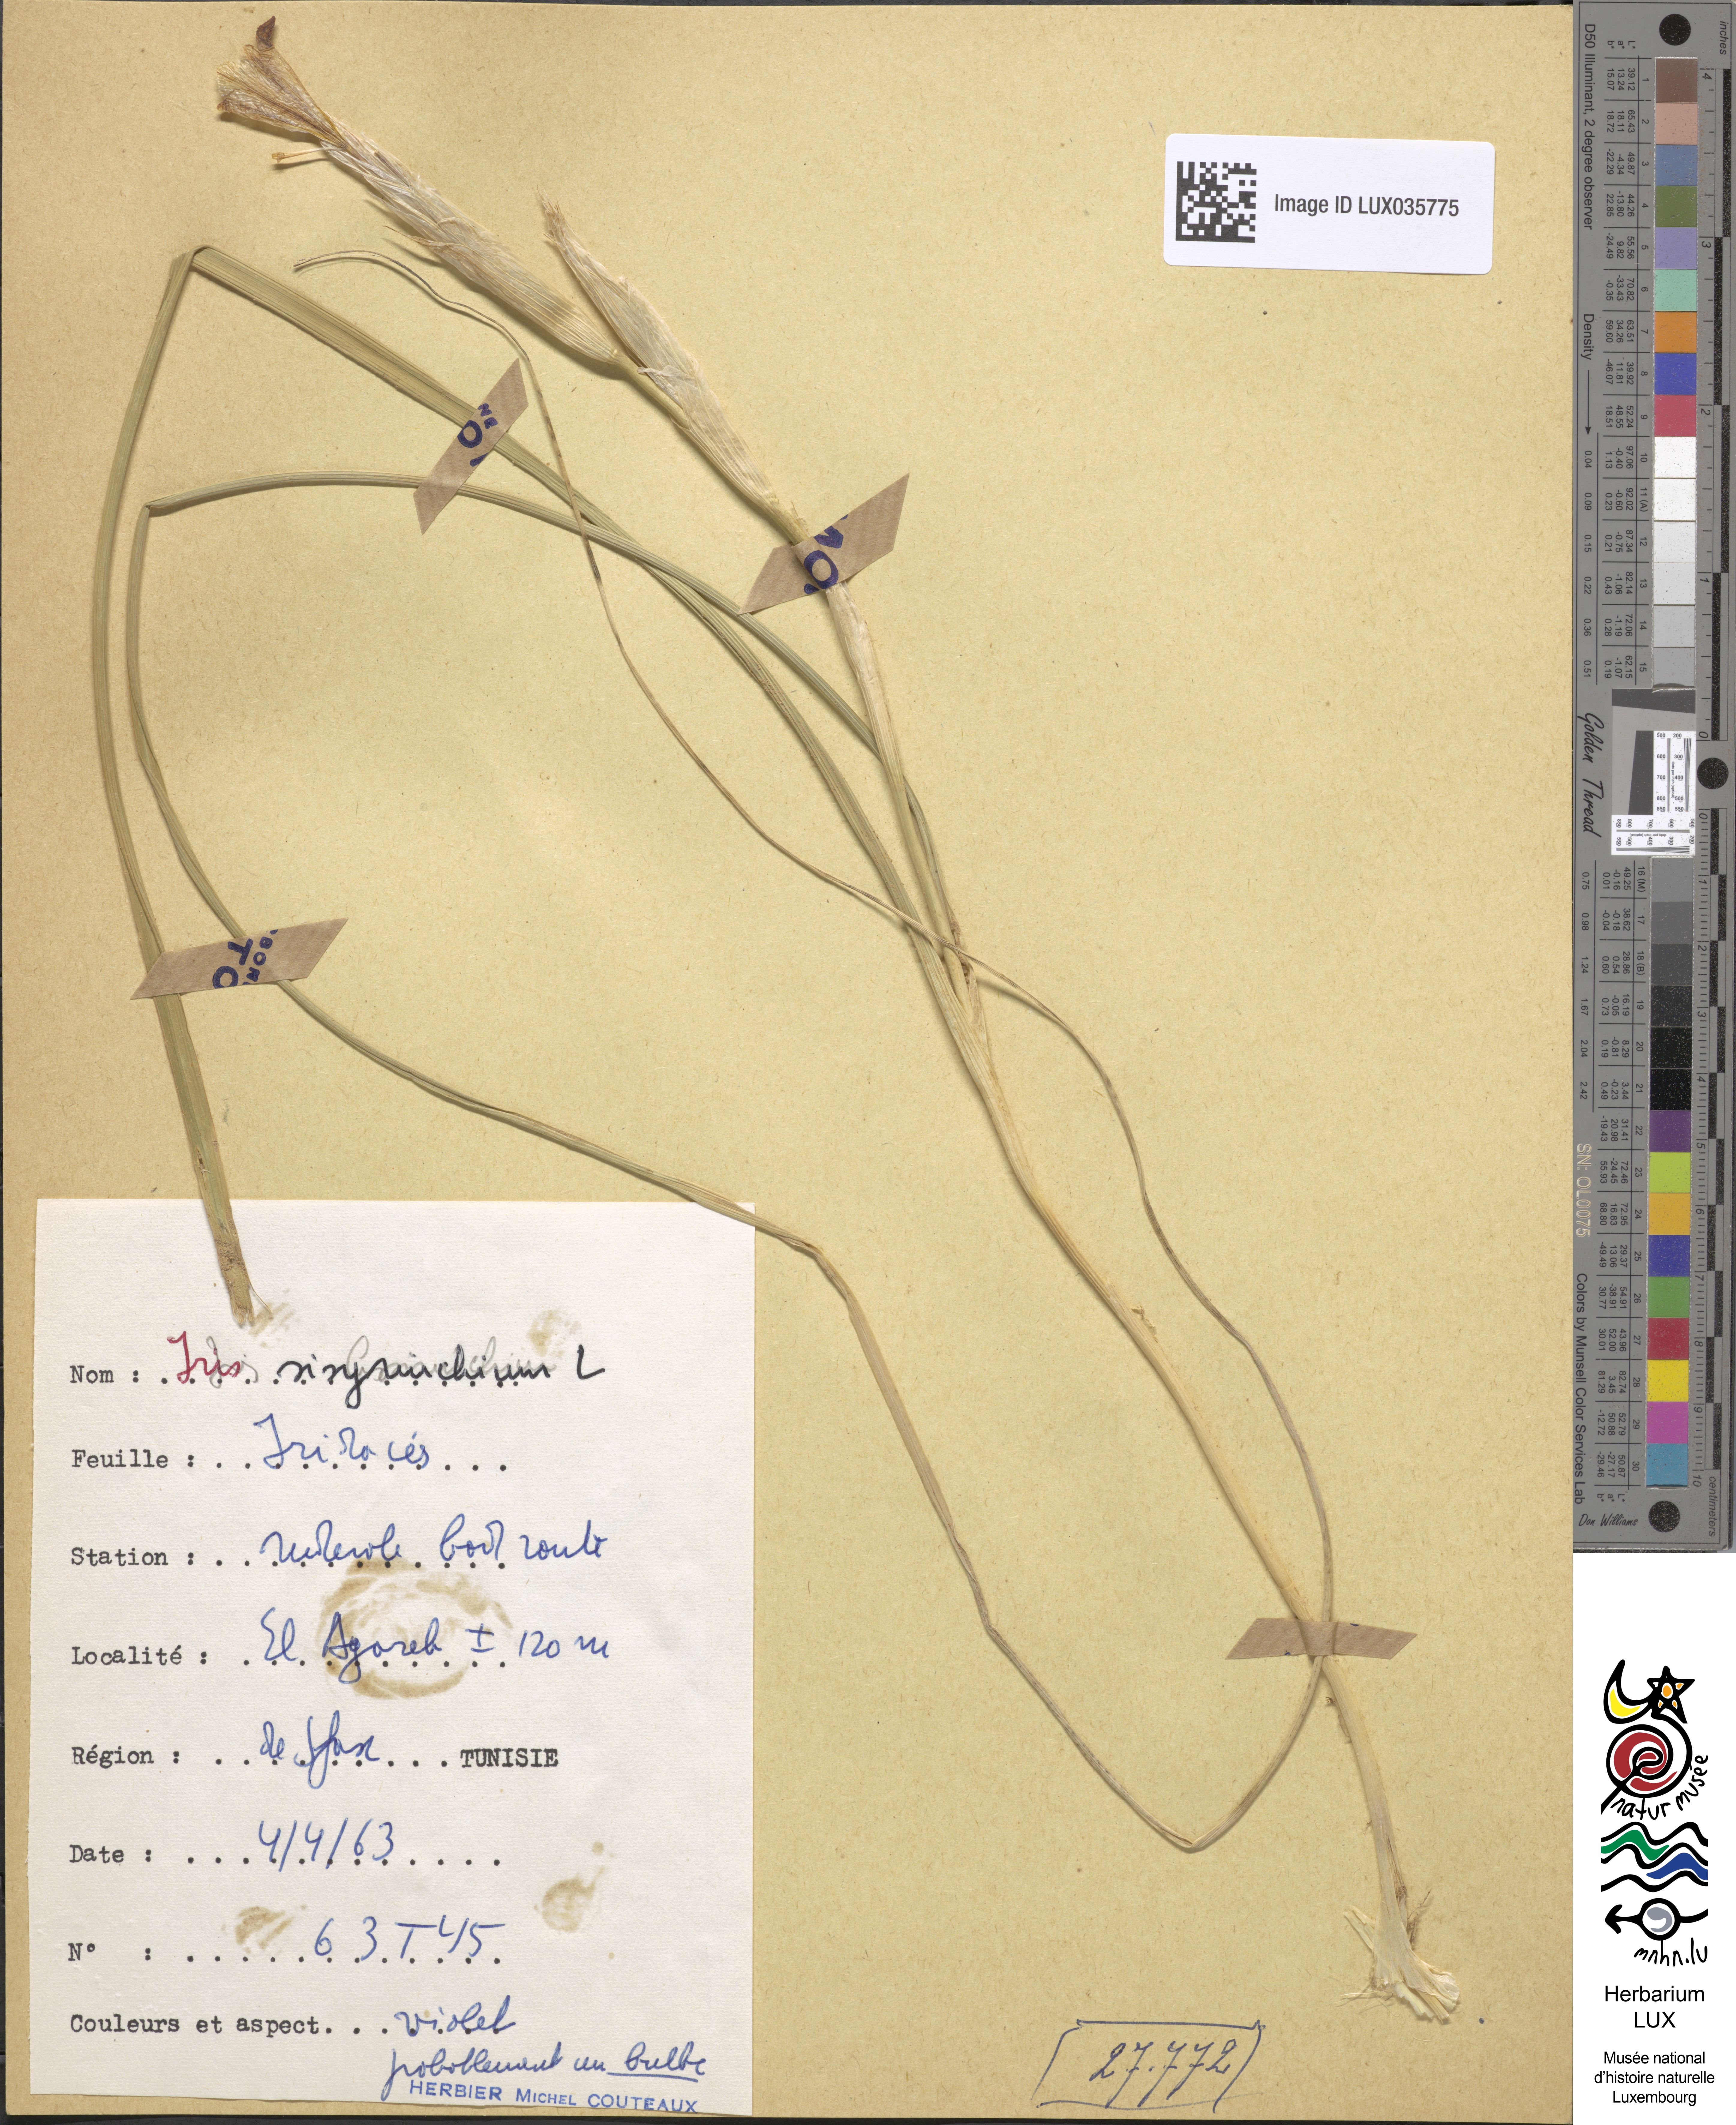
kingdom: Plantae
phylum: Tracheophyta
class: Liliopsida
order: Asparagales
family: Iridaceae
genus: Moraea
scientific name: Moraea sisyrinchium
